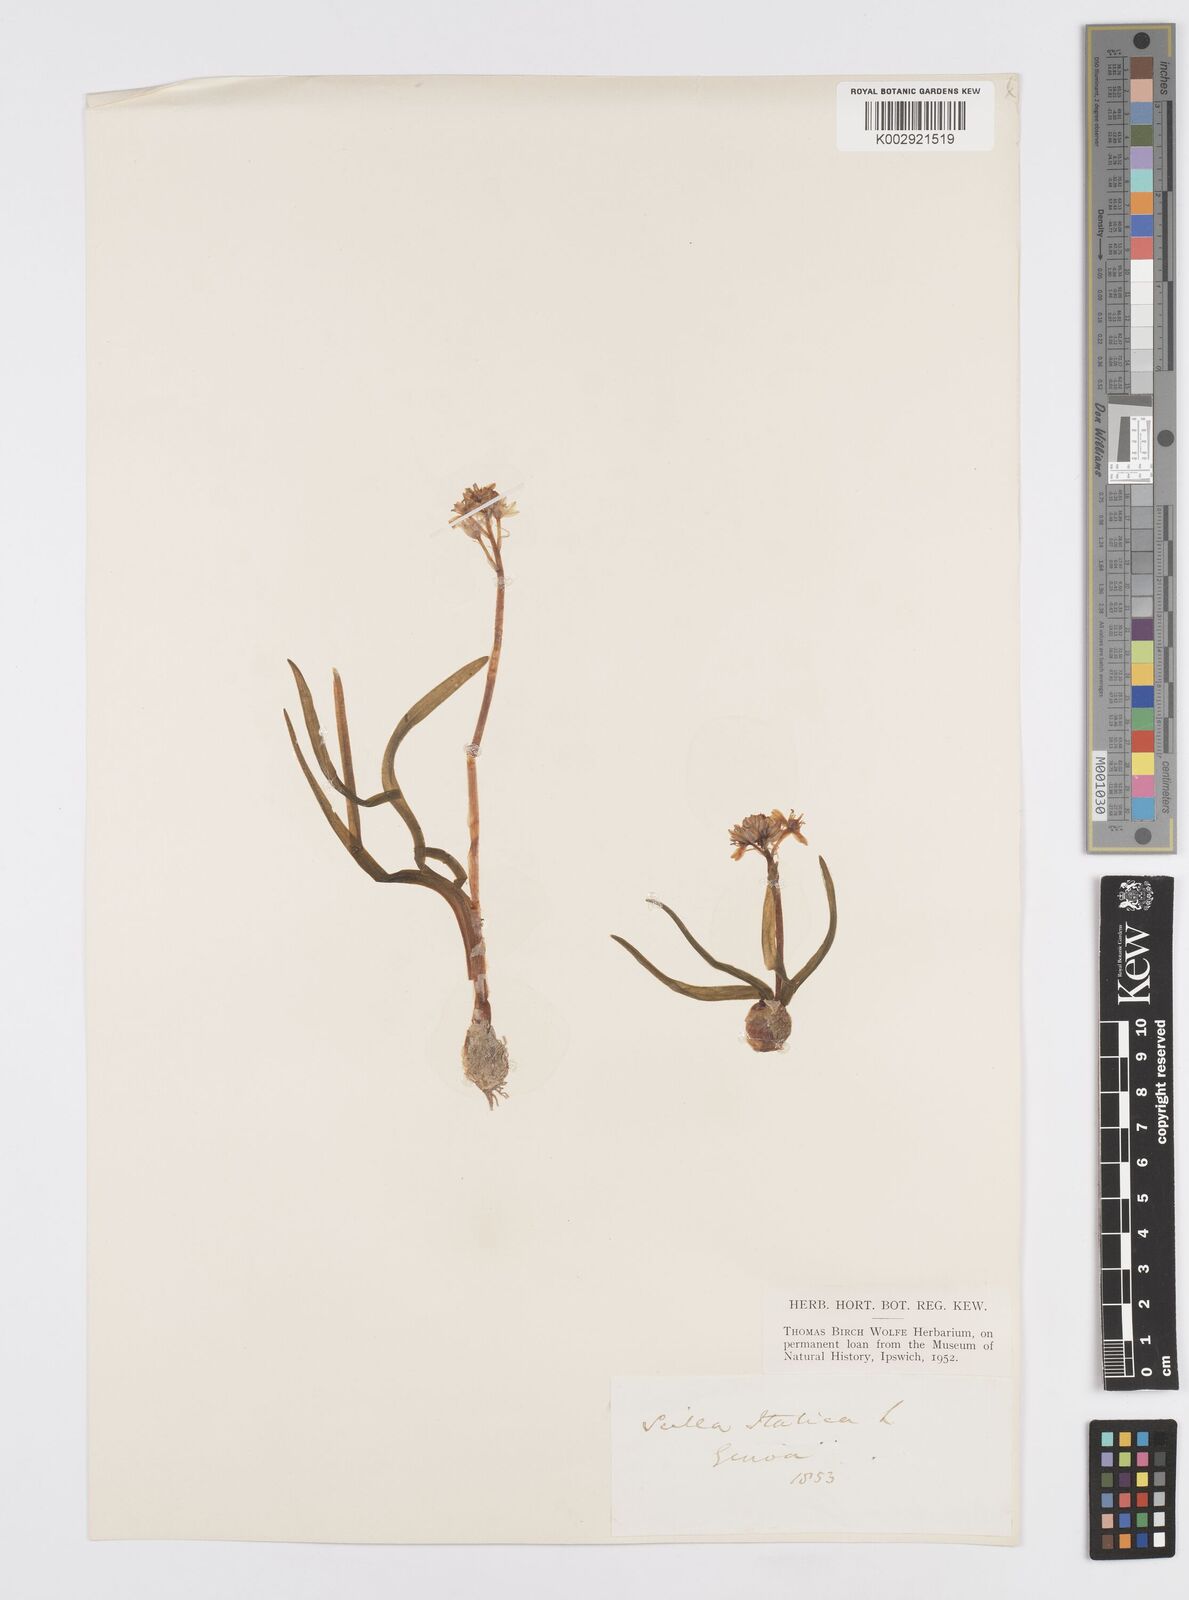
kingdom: Plantae
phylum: Tracheophyta
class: Liliopsida
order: Asparagales
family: Asparagaceae
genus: Hyacinthoides
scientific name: Hyacinthoides italica
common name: Italian bluebell
